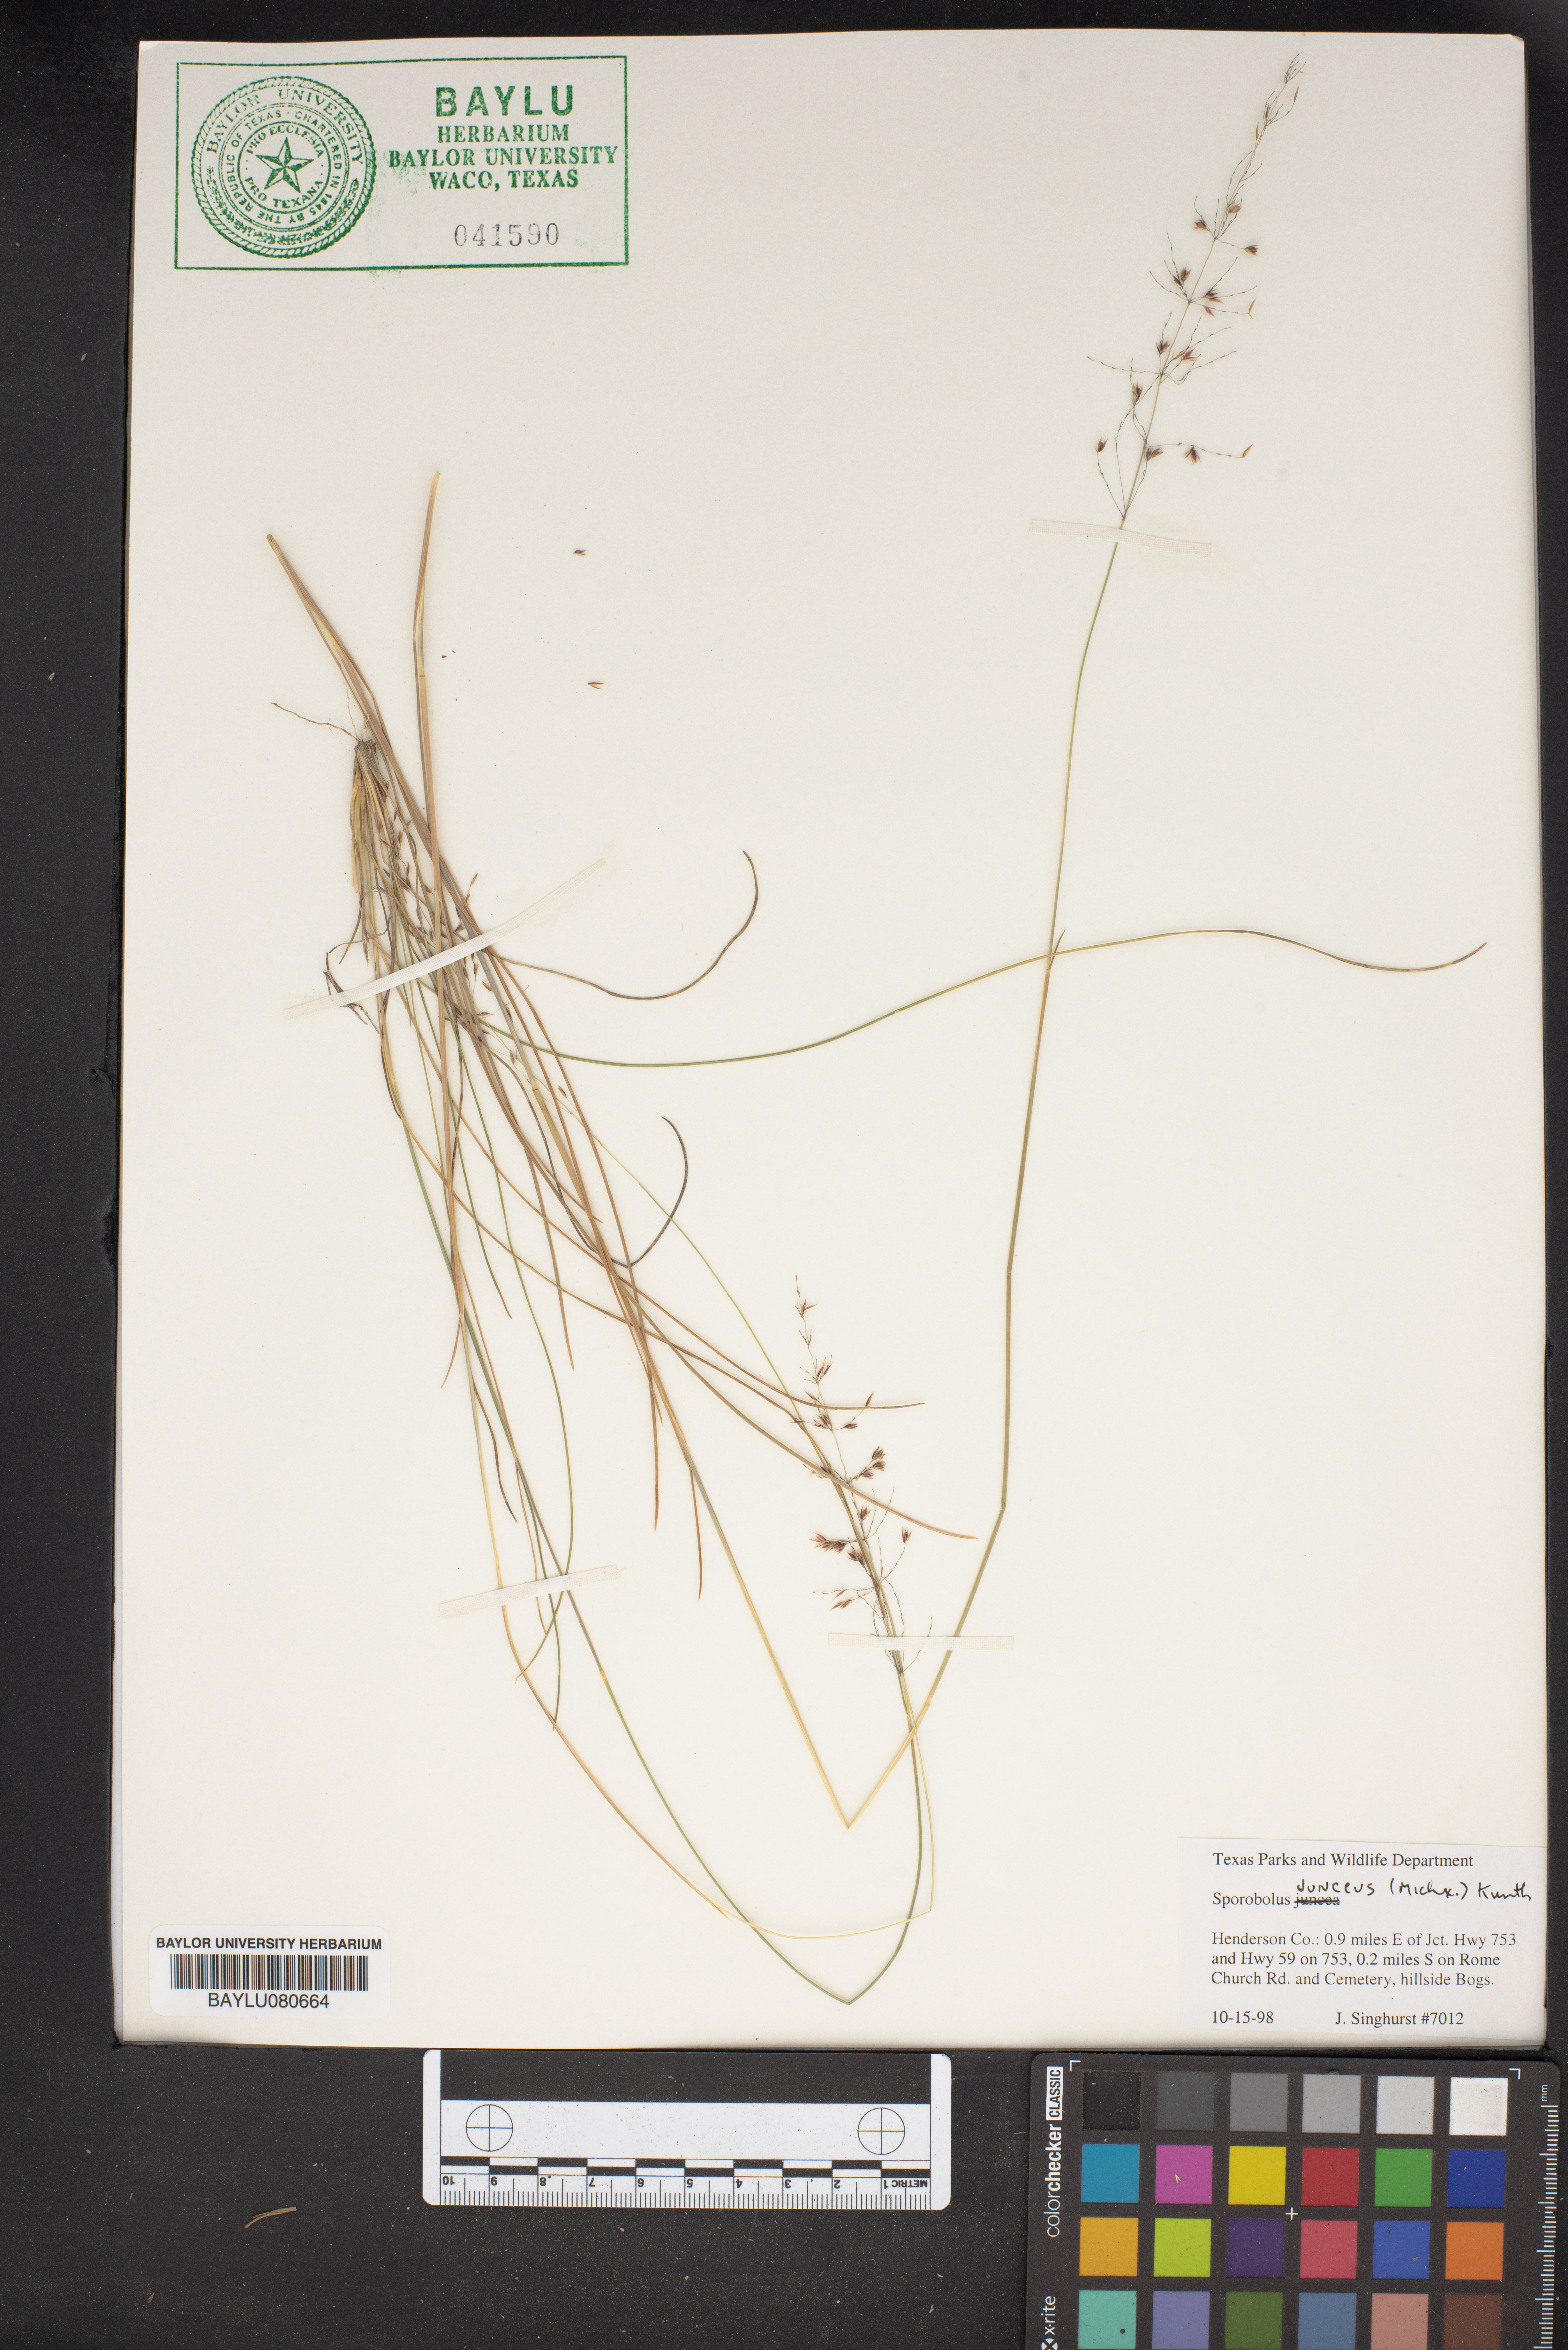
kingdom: Plantae
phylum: Tracheophyta
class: Liliopsida
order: Poales
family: Poaceae
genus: Sporobolus
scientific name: Sporobolus junceus
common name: Lizard grass
